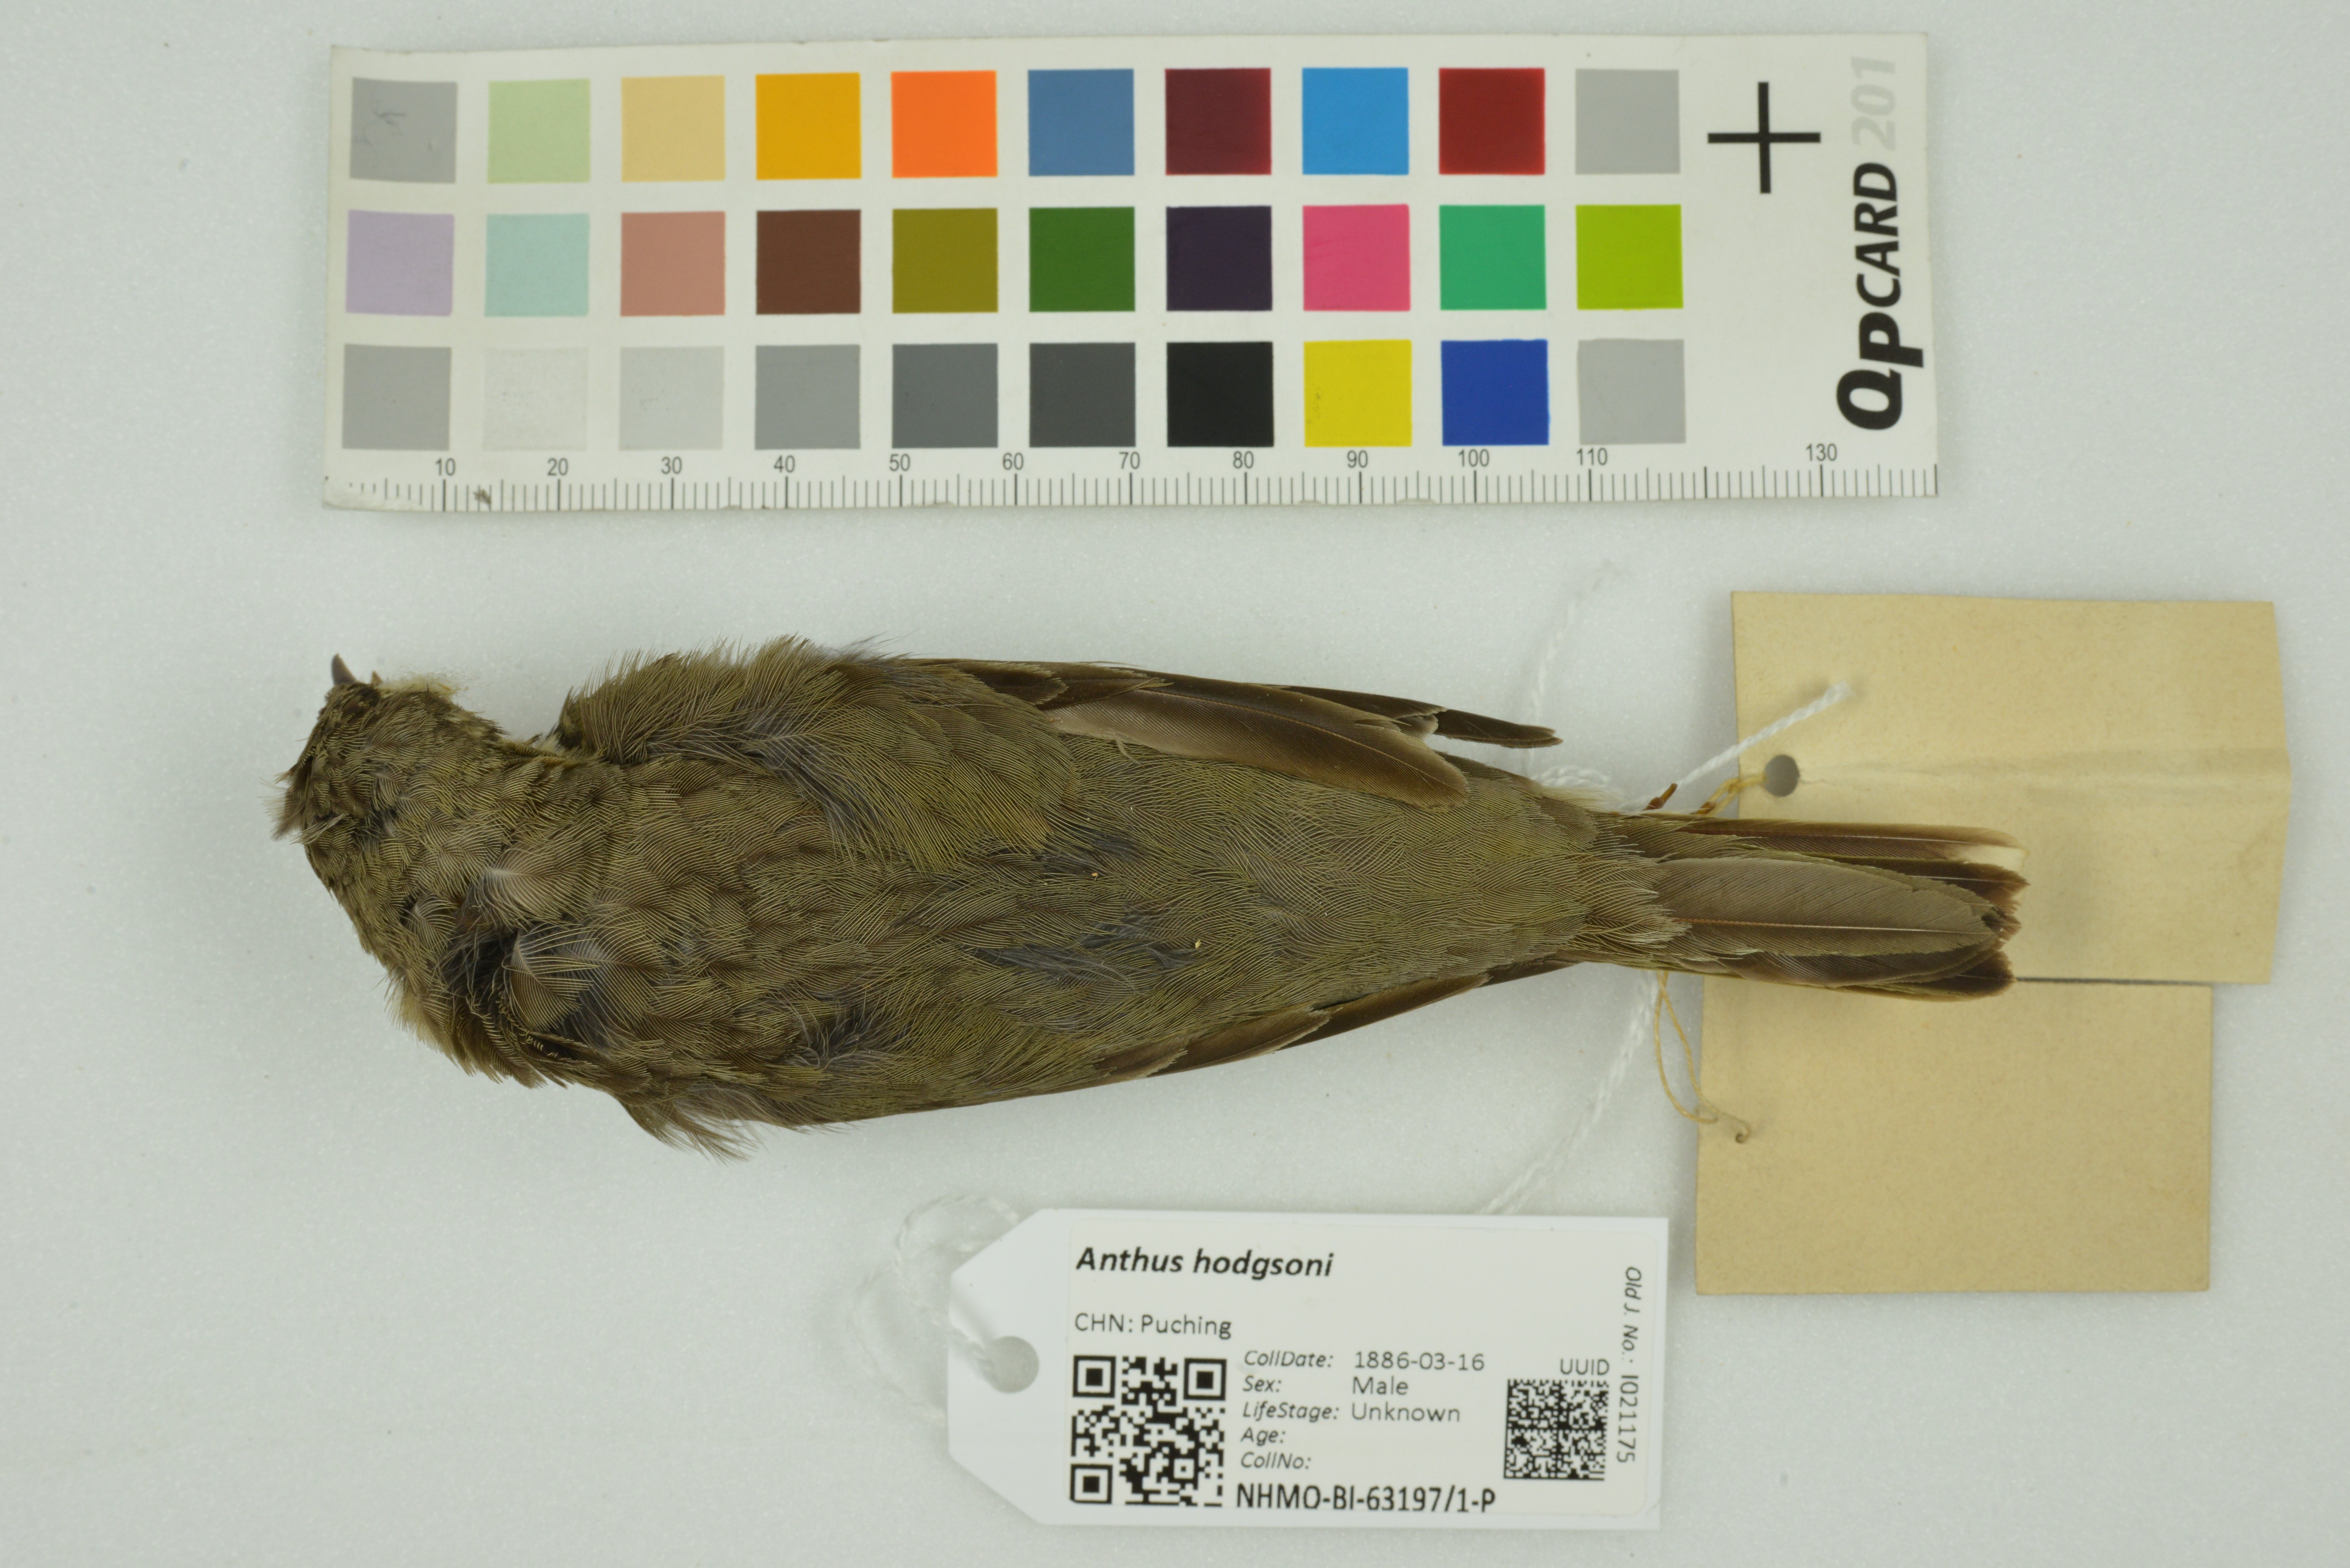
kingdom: Animalia
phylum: Chordata
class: Aves
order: Passeriformes
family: Motacillidae
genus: Anthus
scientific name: Anthus hodgsoni
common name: Olive-backed pipit
